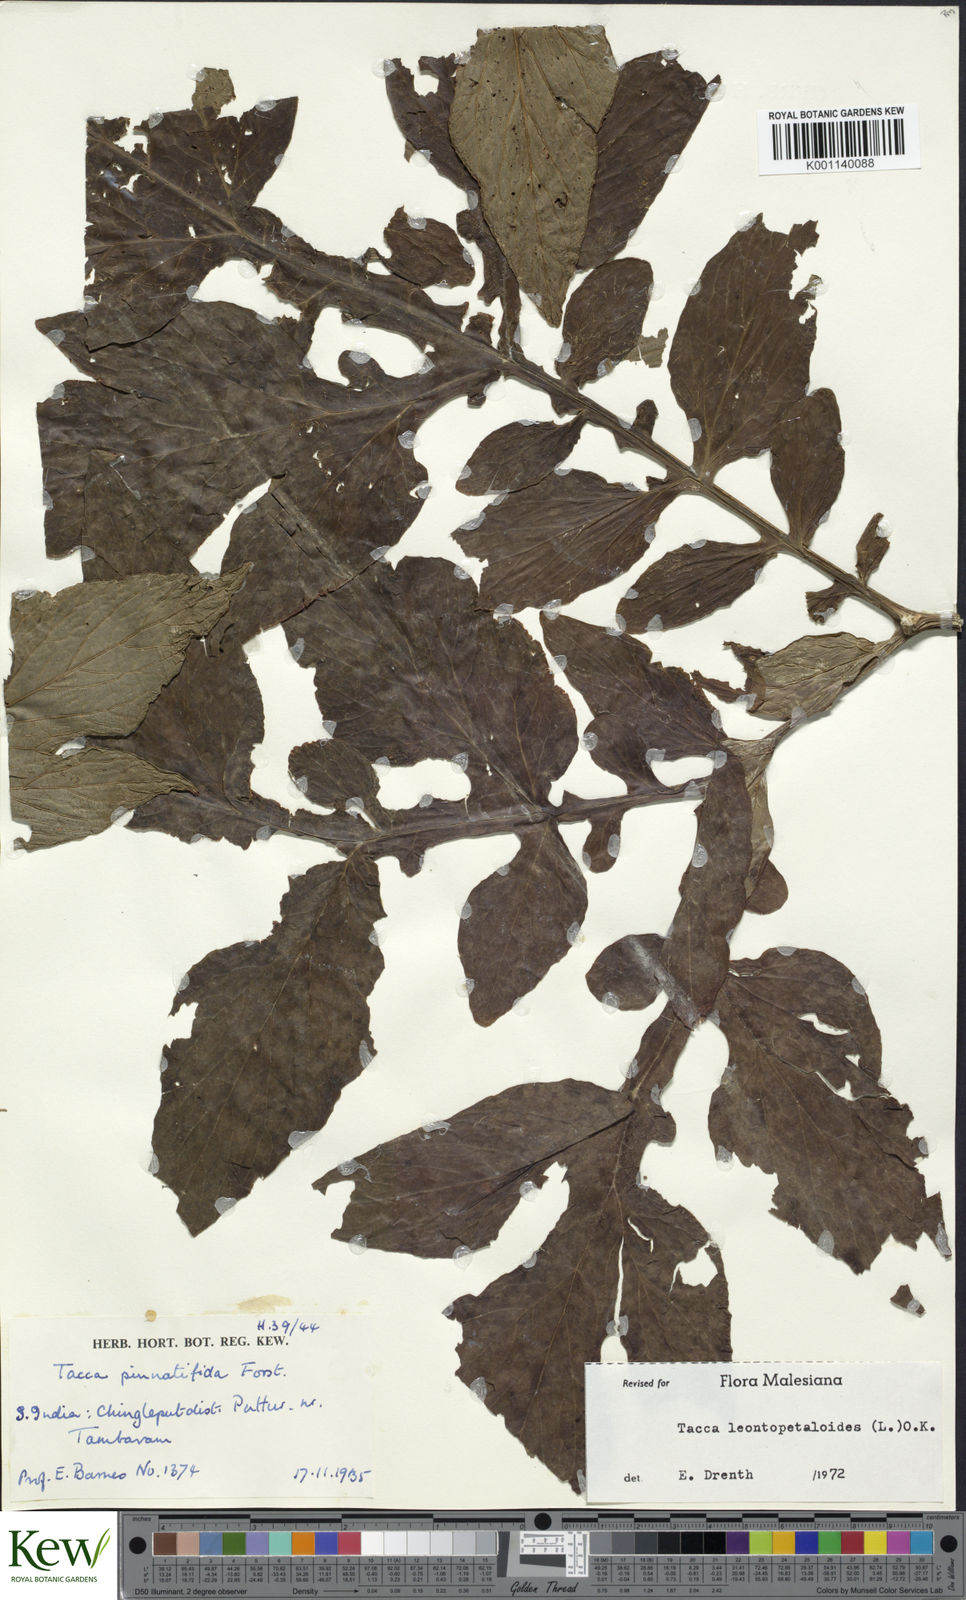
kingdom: Plantae
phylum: Tracheophyta
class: Liliopsida
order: Dioscoreales
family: Dioscoreaceae
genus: Tacca
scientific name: Tacca leontopetaloides
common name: Arrowroot
